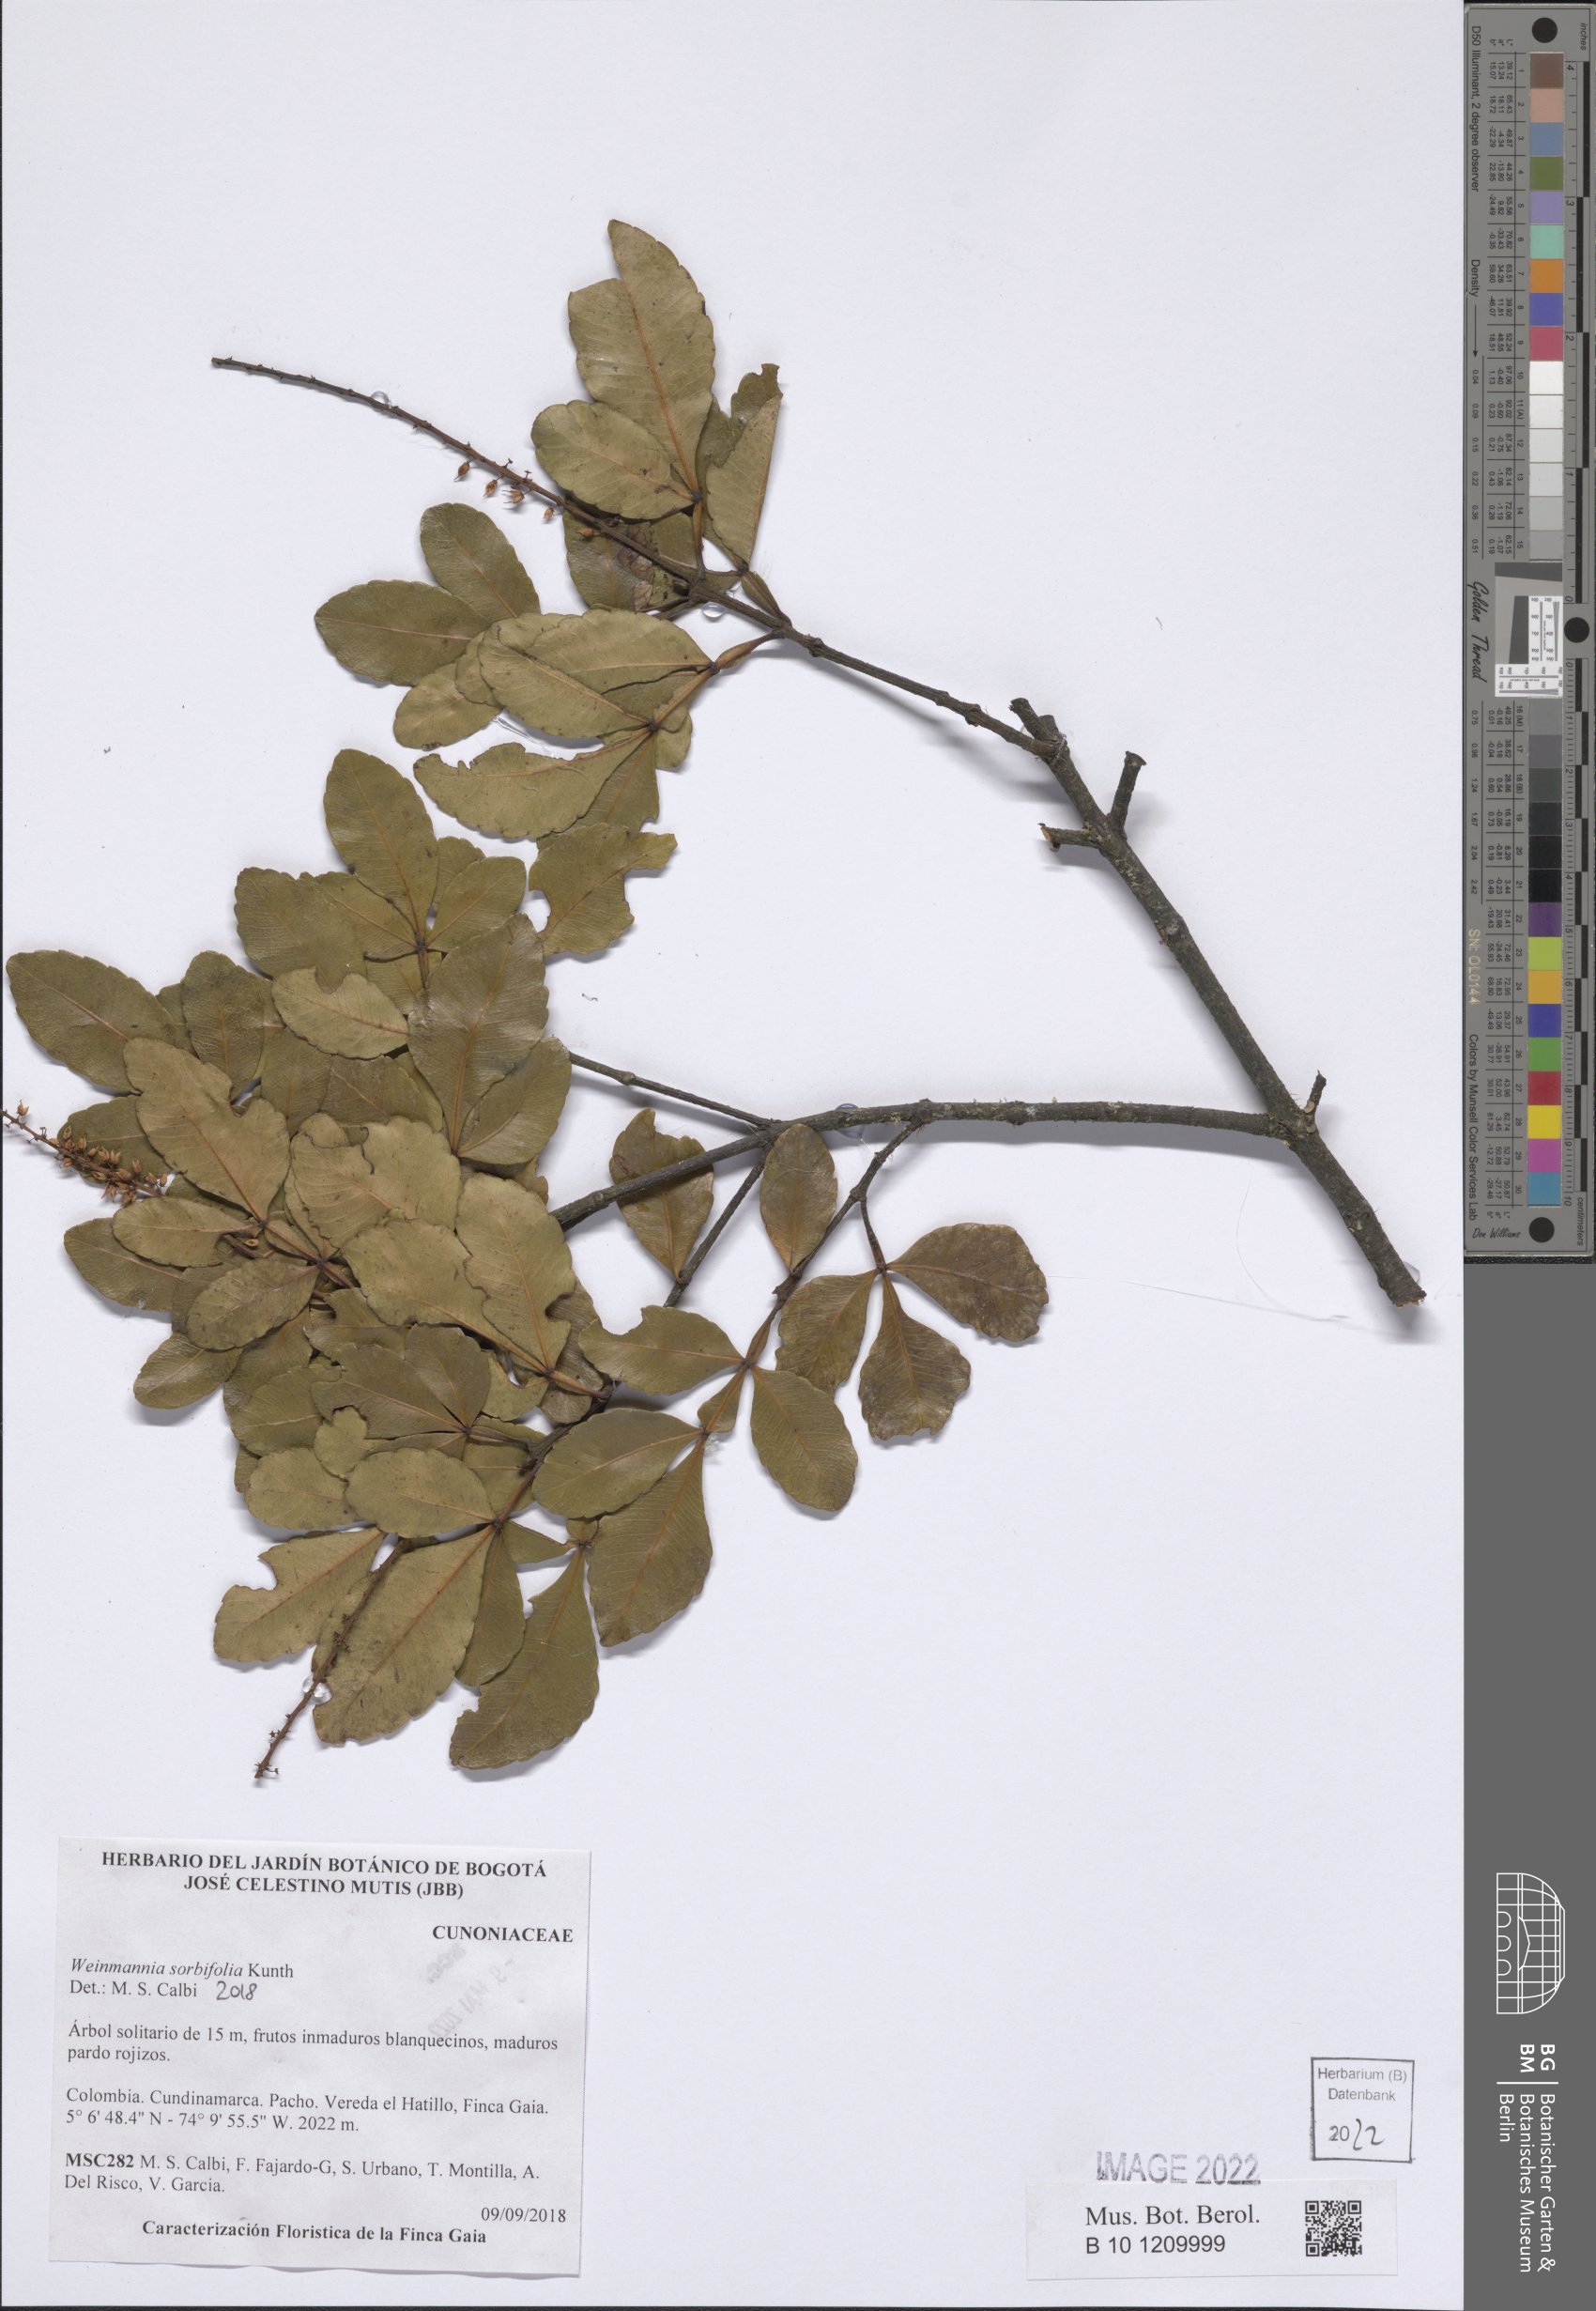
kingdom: Plantae
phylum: Tracheophyta
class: Magnoliopsida
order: Oxalidales
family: Cunoniaceae
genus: Weinmannia
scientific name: Weinmannia sorbifolia
